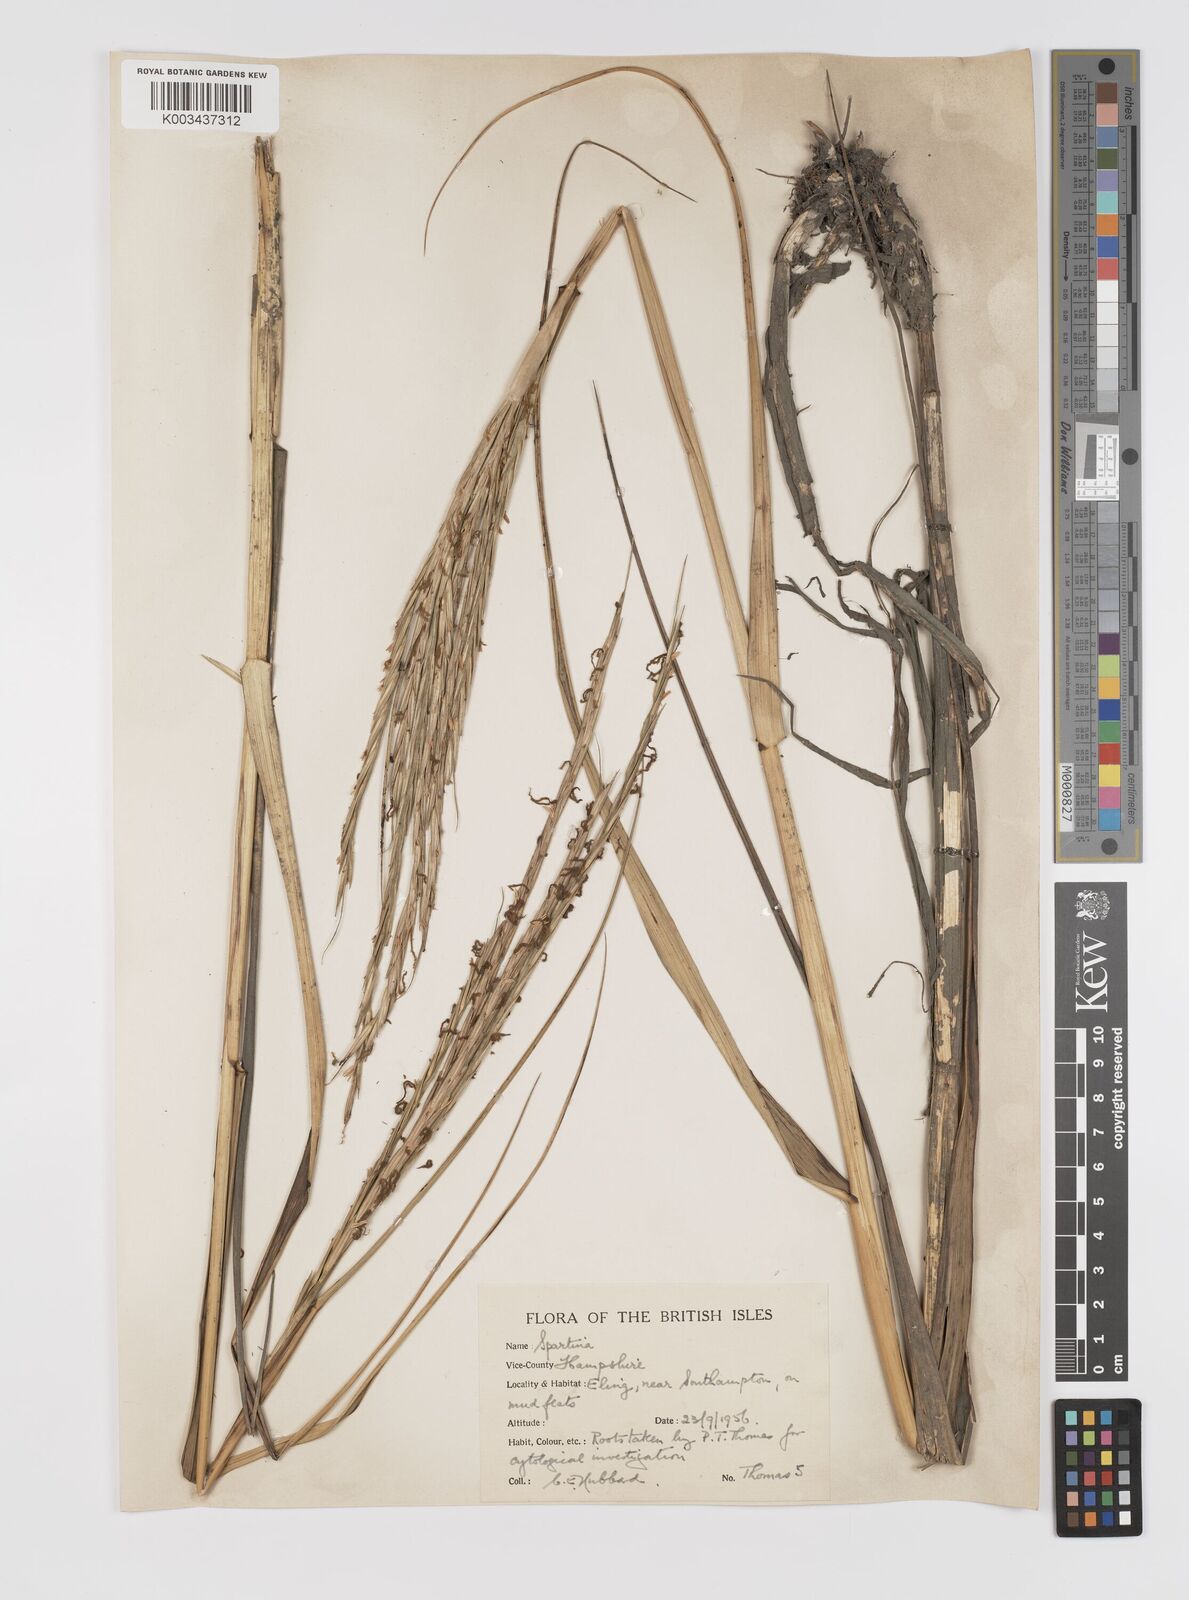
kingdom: Plantae
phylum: Tracheophyta
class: Liliopsida
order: Poales
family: Poaceae
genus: Sporobolus
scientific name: Sporobolus townsendii
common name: Townsend's cordgrass
